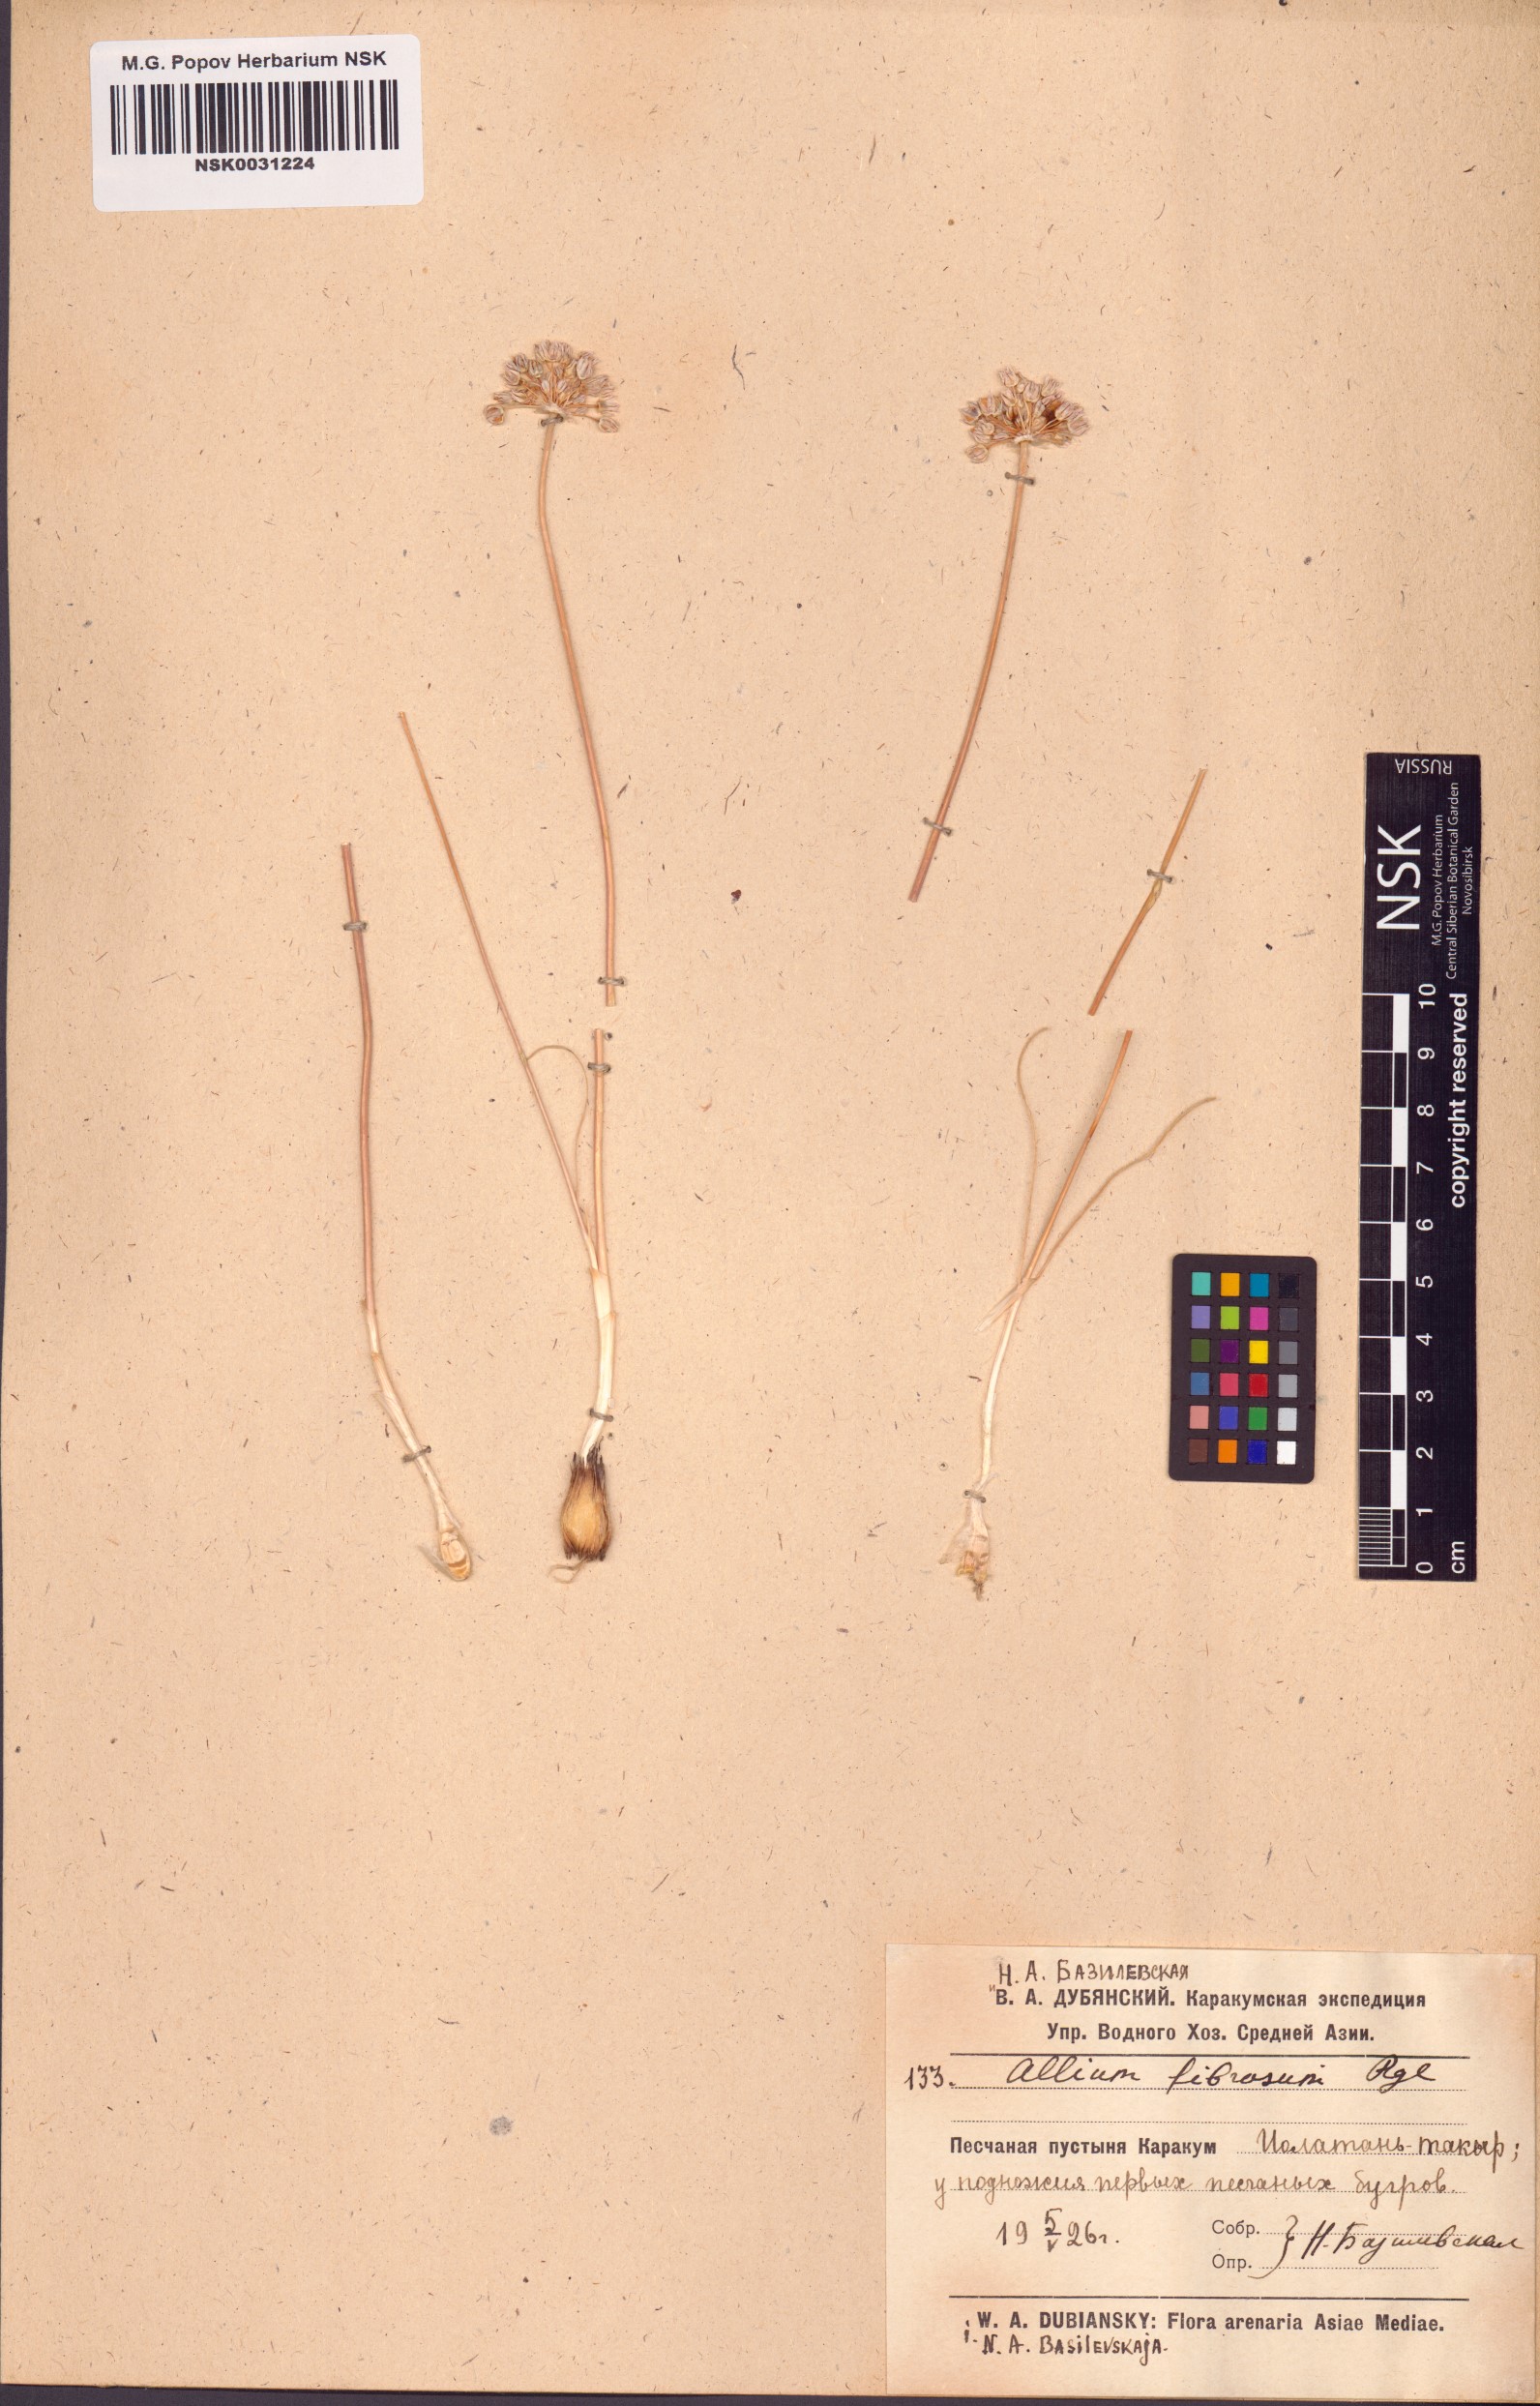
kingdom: Plantae
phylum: Tracheophyta
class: Liliopsida
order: Asparagales
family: Amaryllidaceae
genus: Allium
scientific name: Allium leucosphaerum
